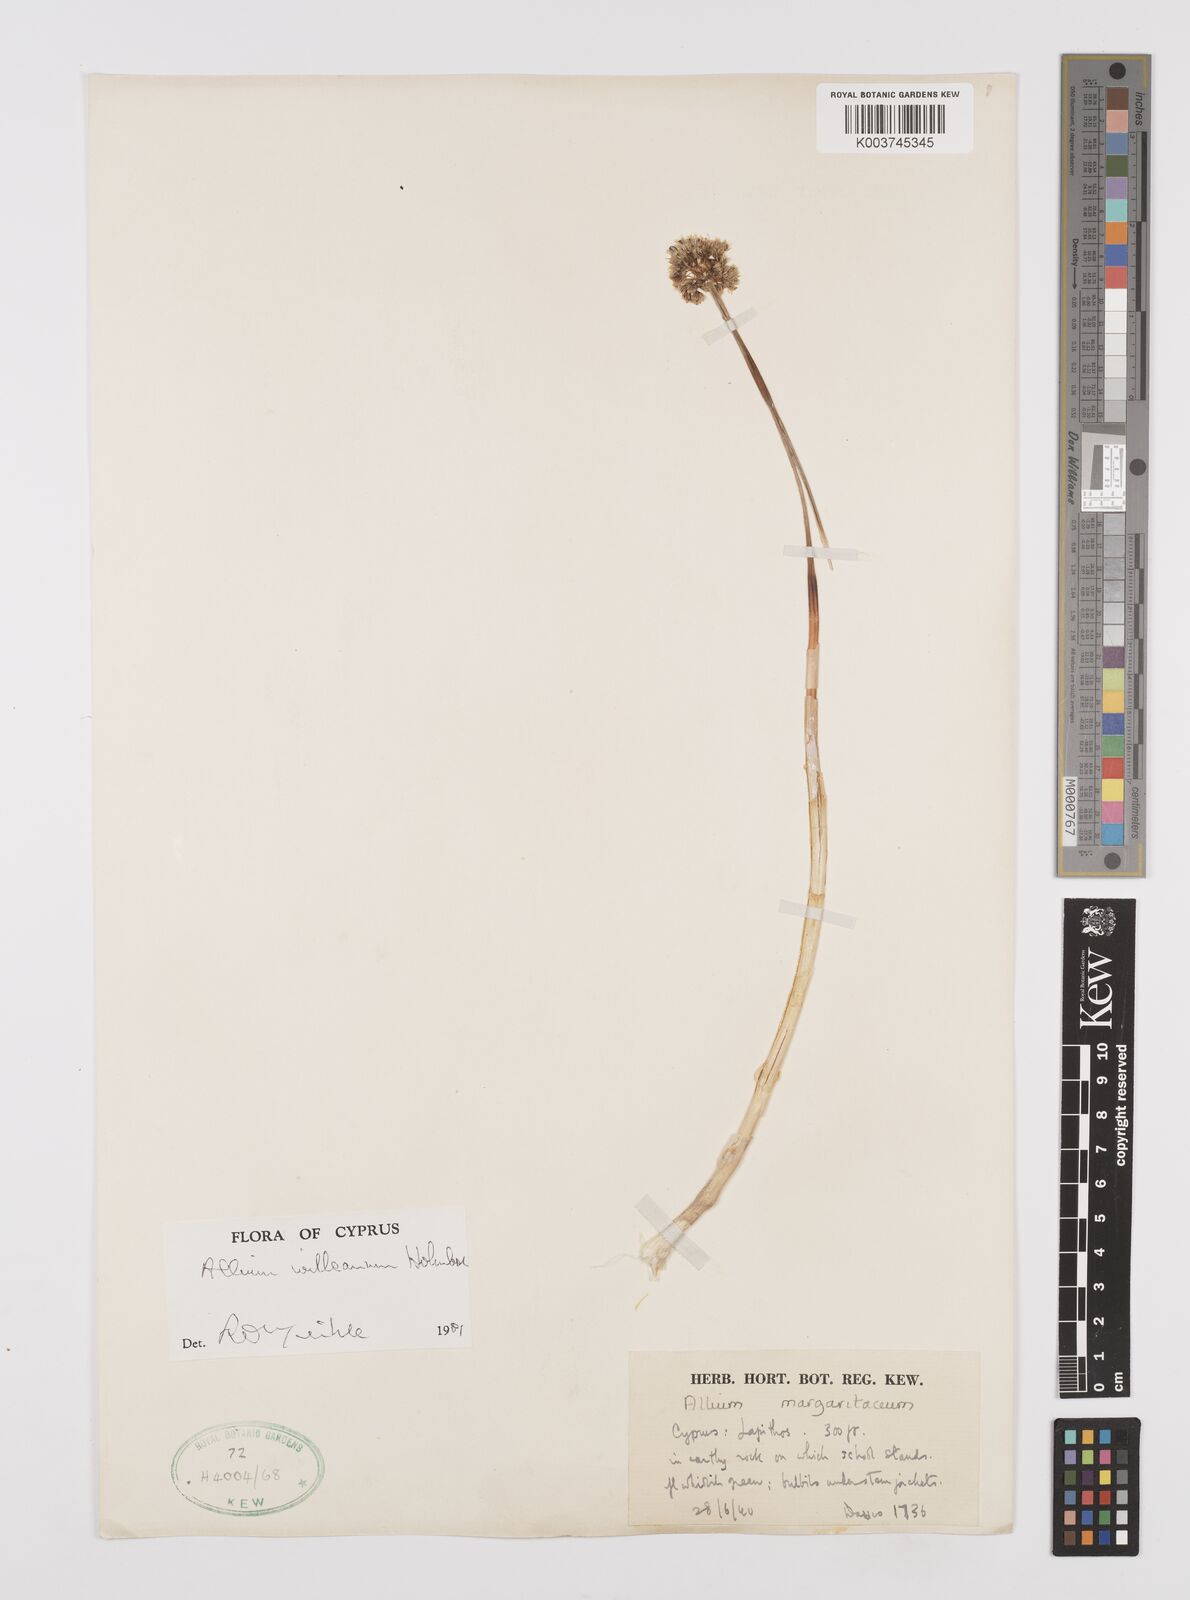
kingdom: Plantae
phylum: Tracheophyta
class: Liliopsida
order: Asparagales
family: Amaryllidaceae
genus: Allium
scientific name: Allium willeanum
